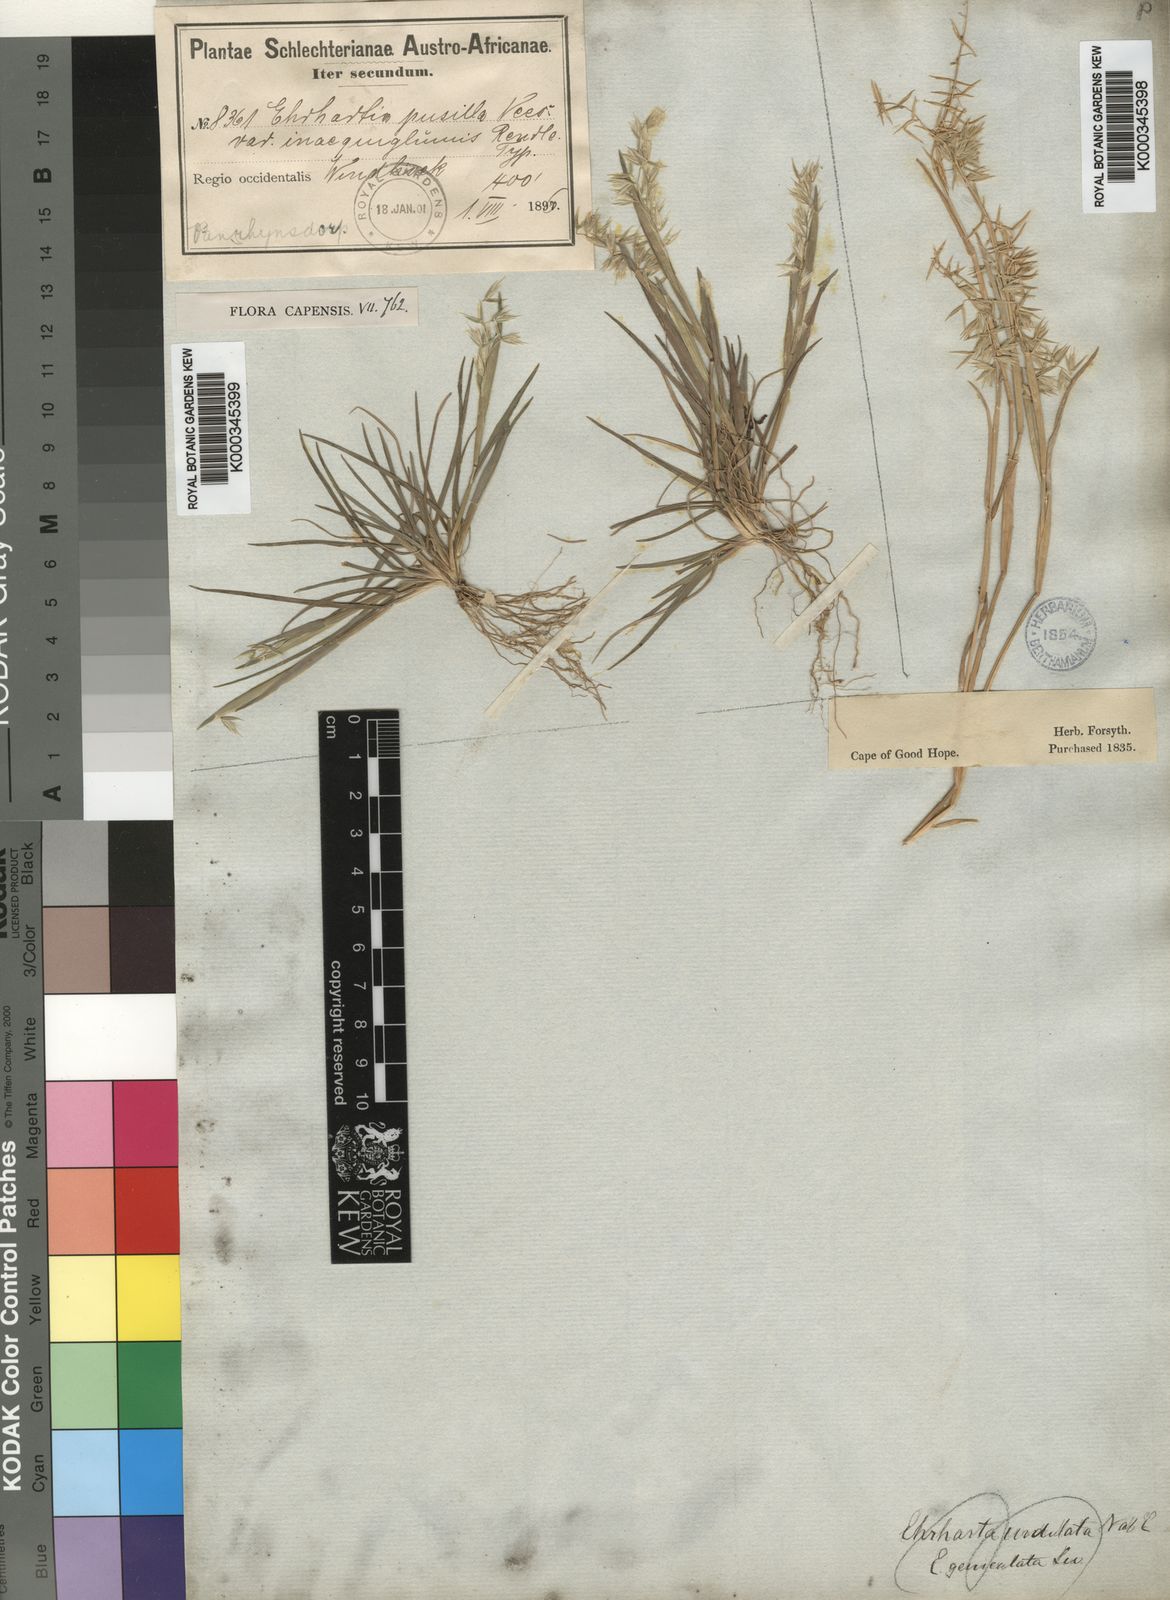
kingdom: Plantae
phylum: Tracheophyta
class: Liliopsida
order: Poales
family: Poaceae
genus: Ehrharta
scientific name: Ehrharta
